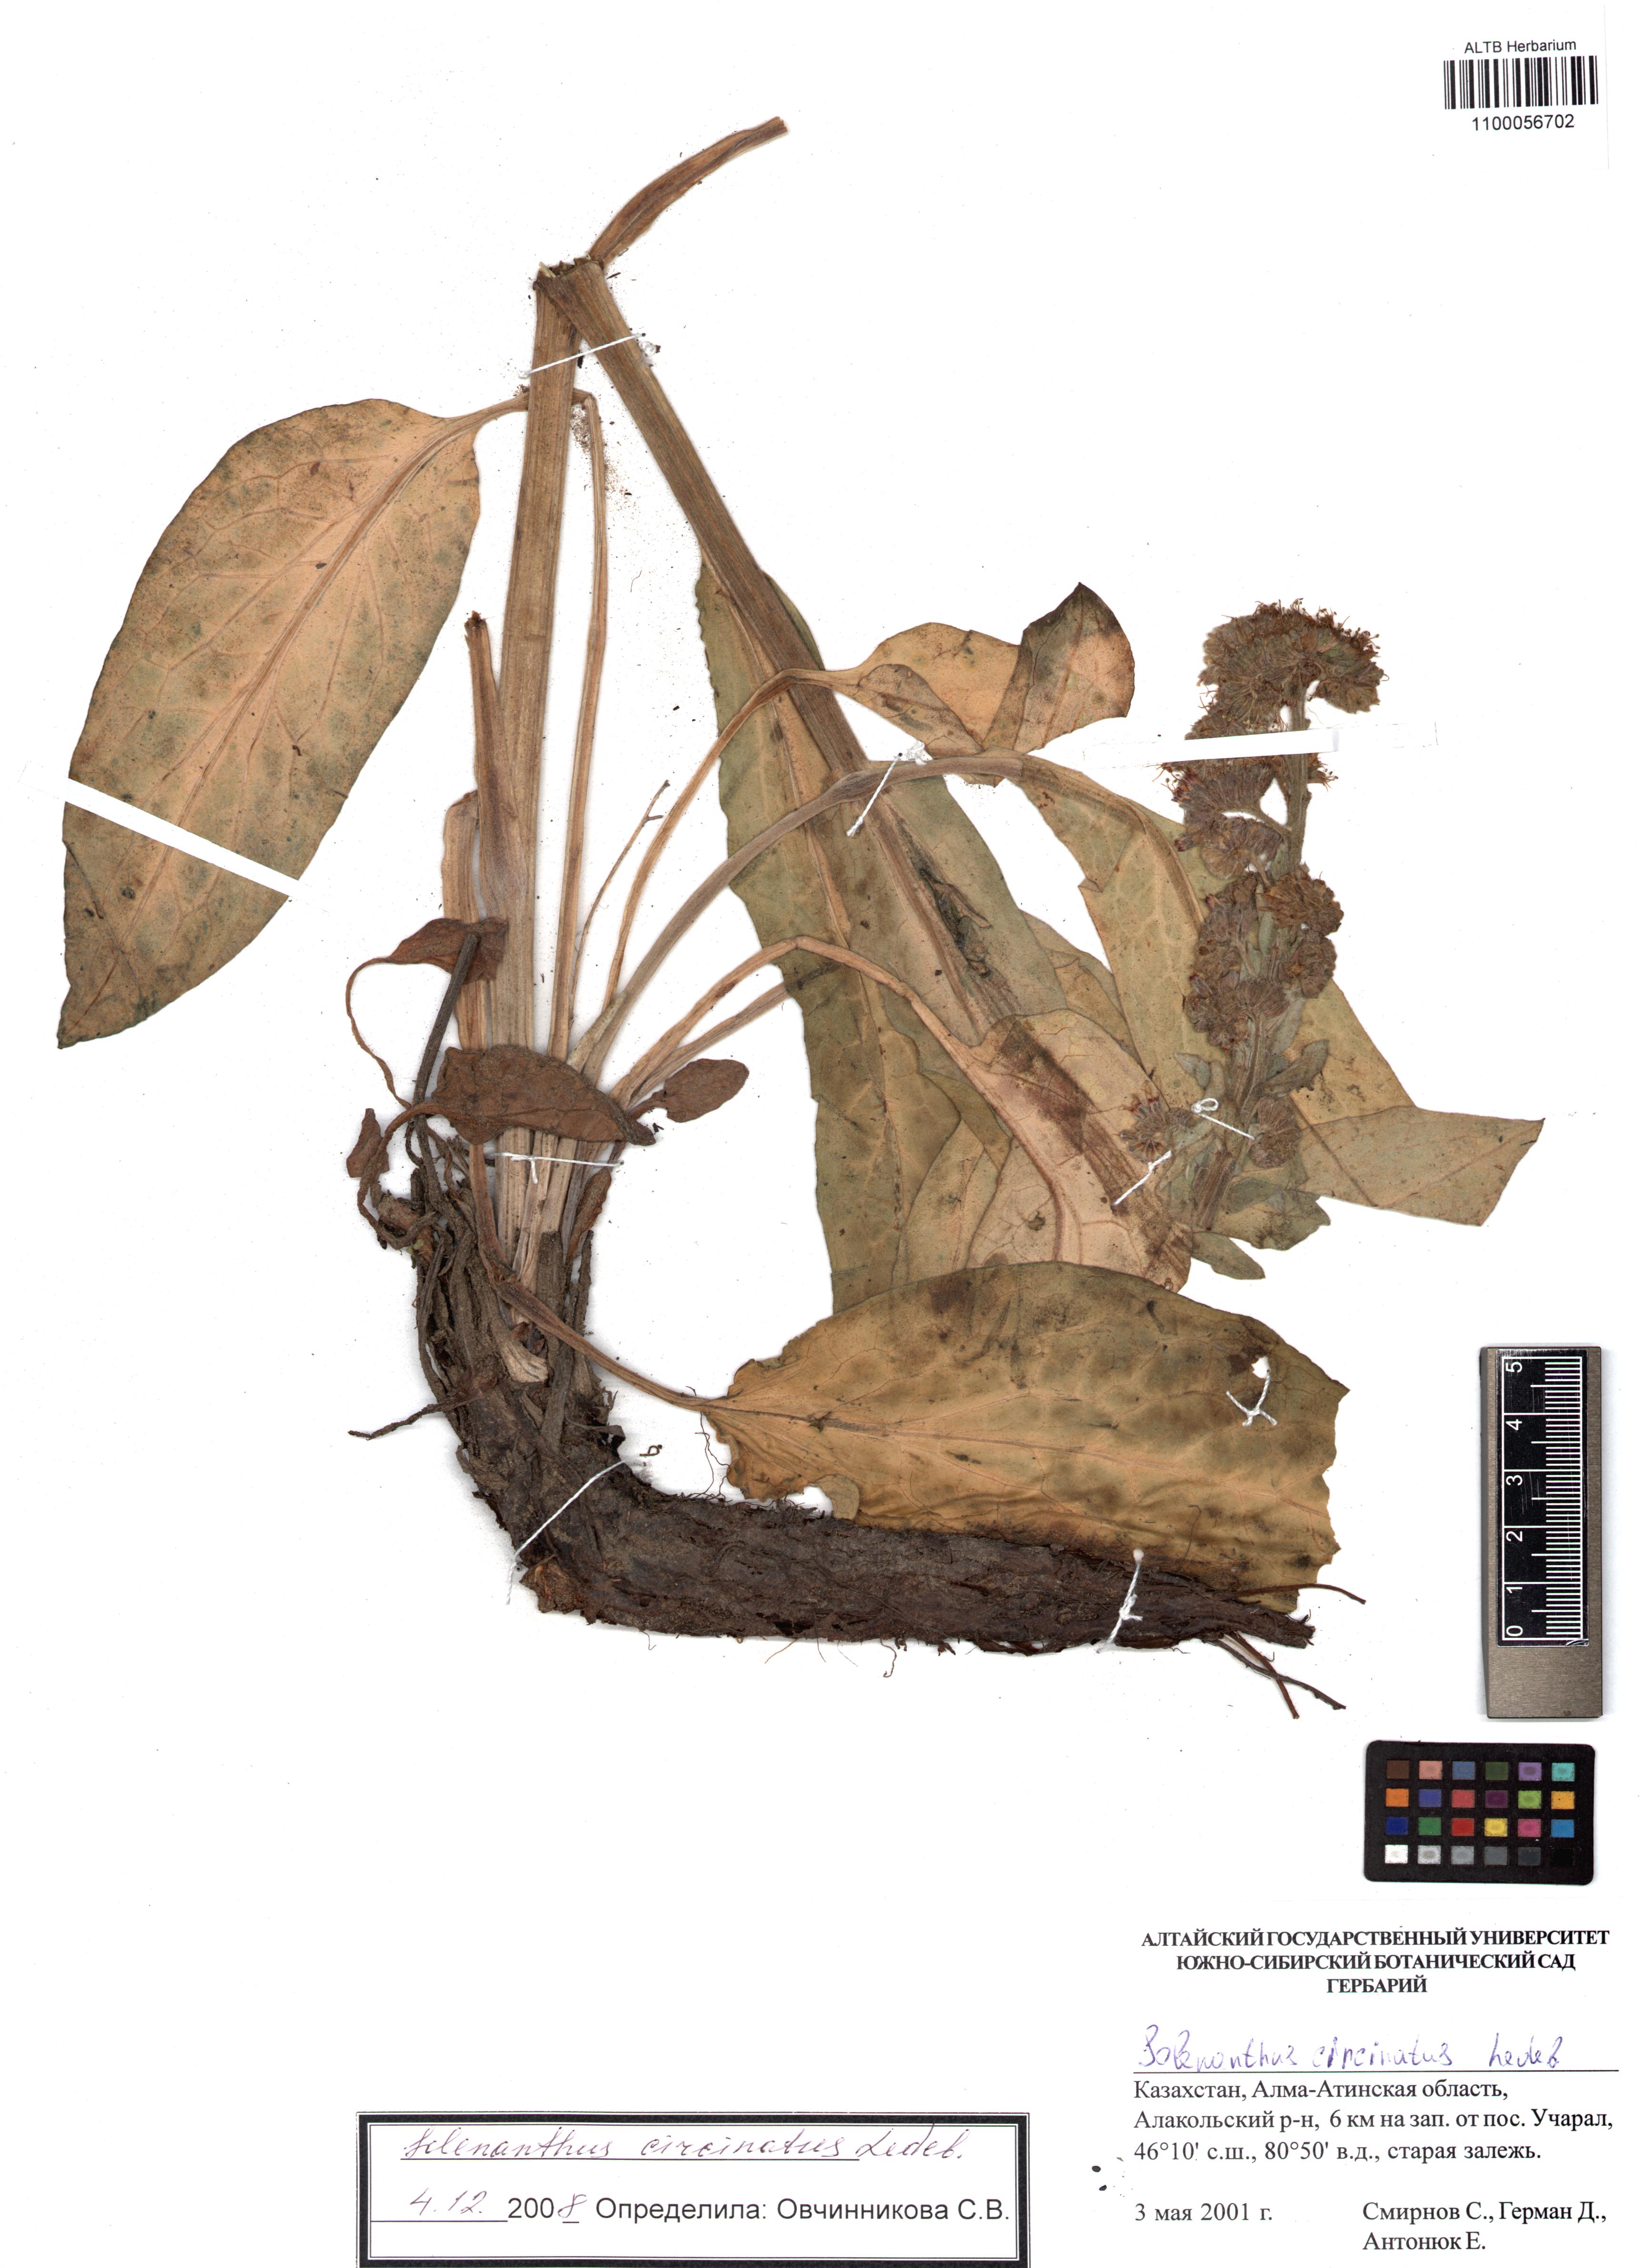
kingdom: Plantae
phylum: Tracheophyta
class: Magnoliopsida
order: Boraginales
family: Boraginaceae
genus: Solenanthus
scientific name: Solenanthus circinnatus
